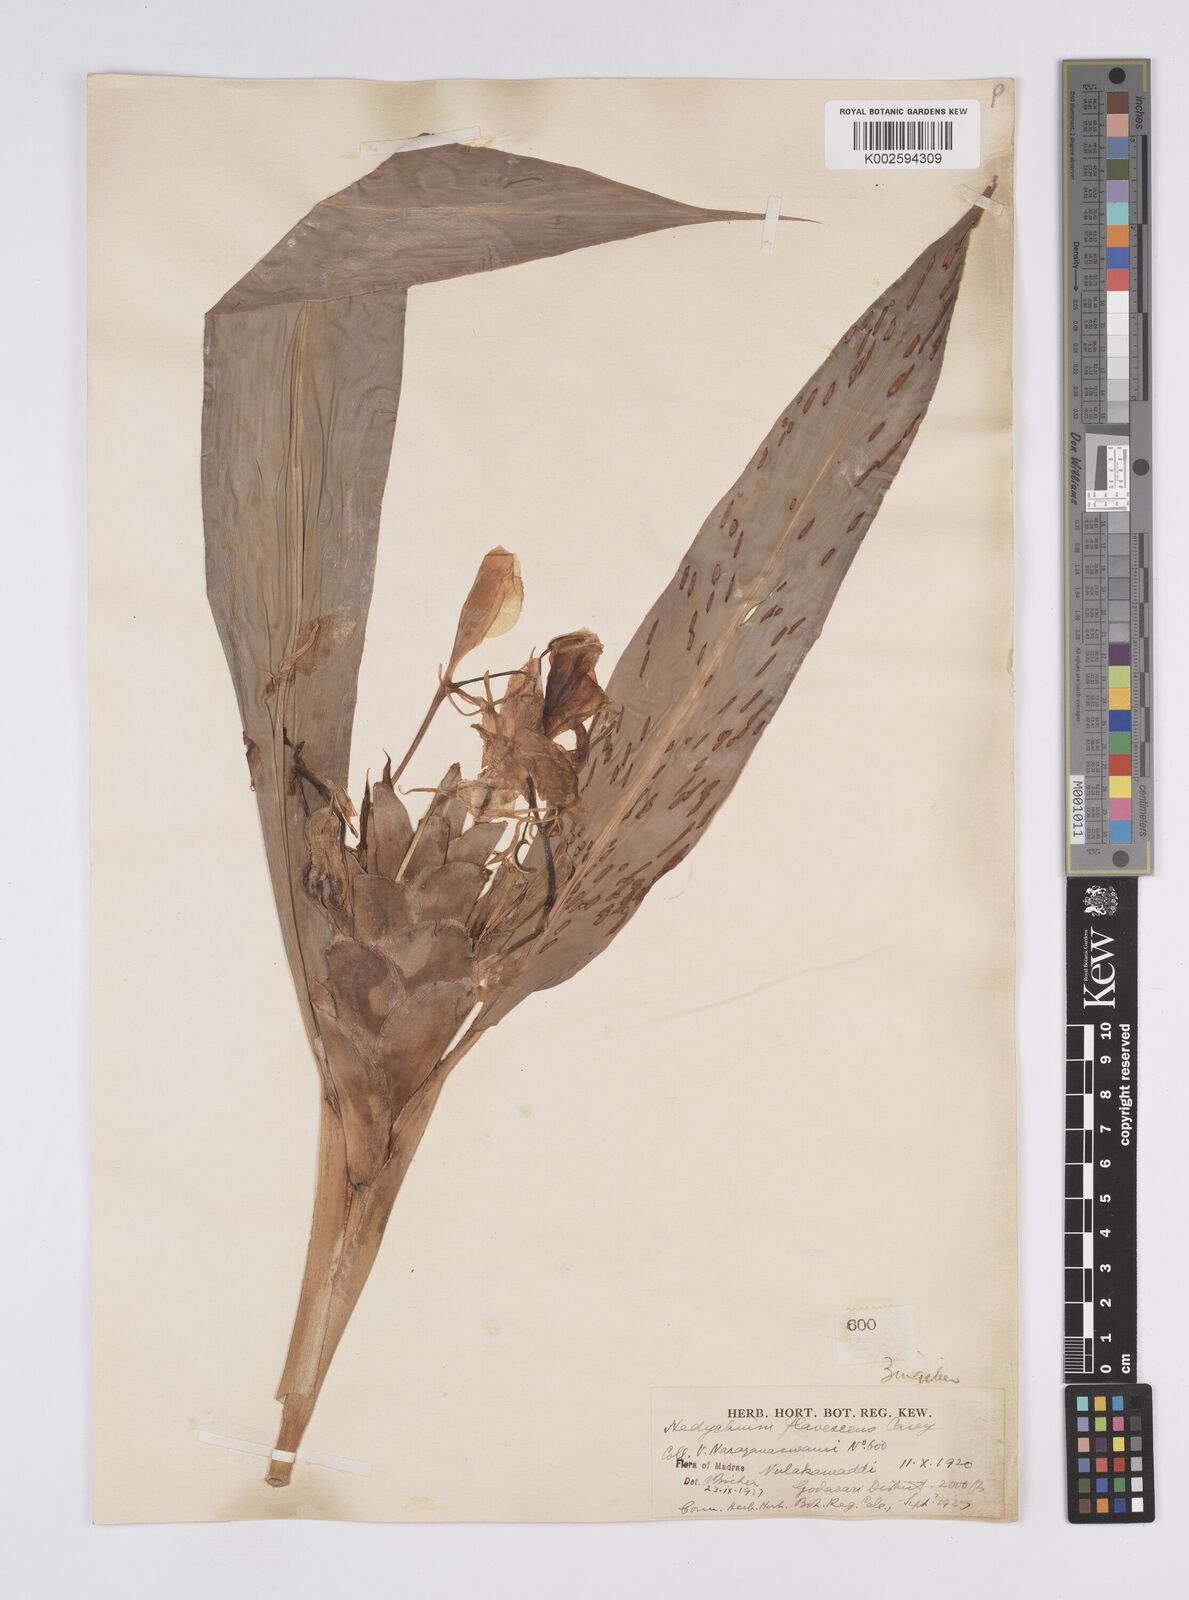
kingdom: Plantae
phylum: Tracheophyta
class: Liliopsida
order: Zingiberales
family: Zingiberaceae
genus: Hedychium
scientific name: Hedychium flavescens
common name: Yellow ginger
